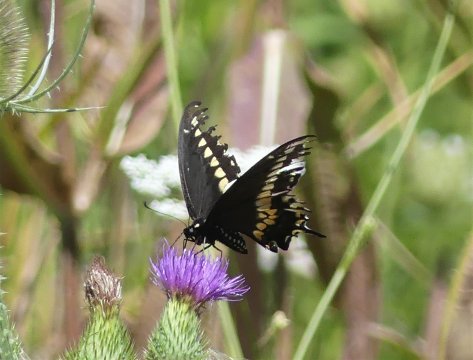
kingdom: Animalia
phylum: Arthropoda
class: Insecta
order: Lepidoptera
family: Papilionidae
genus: Papilio
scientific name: Papilio polyxenes
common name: Black Swallowtail
